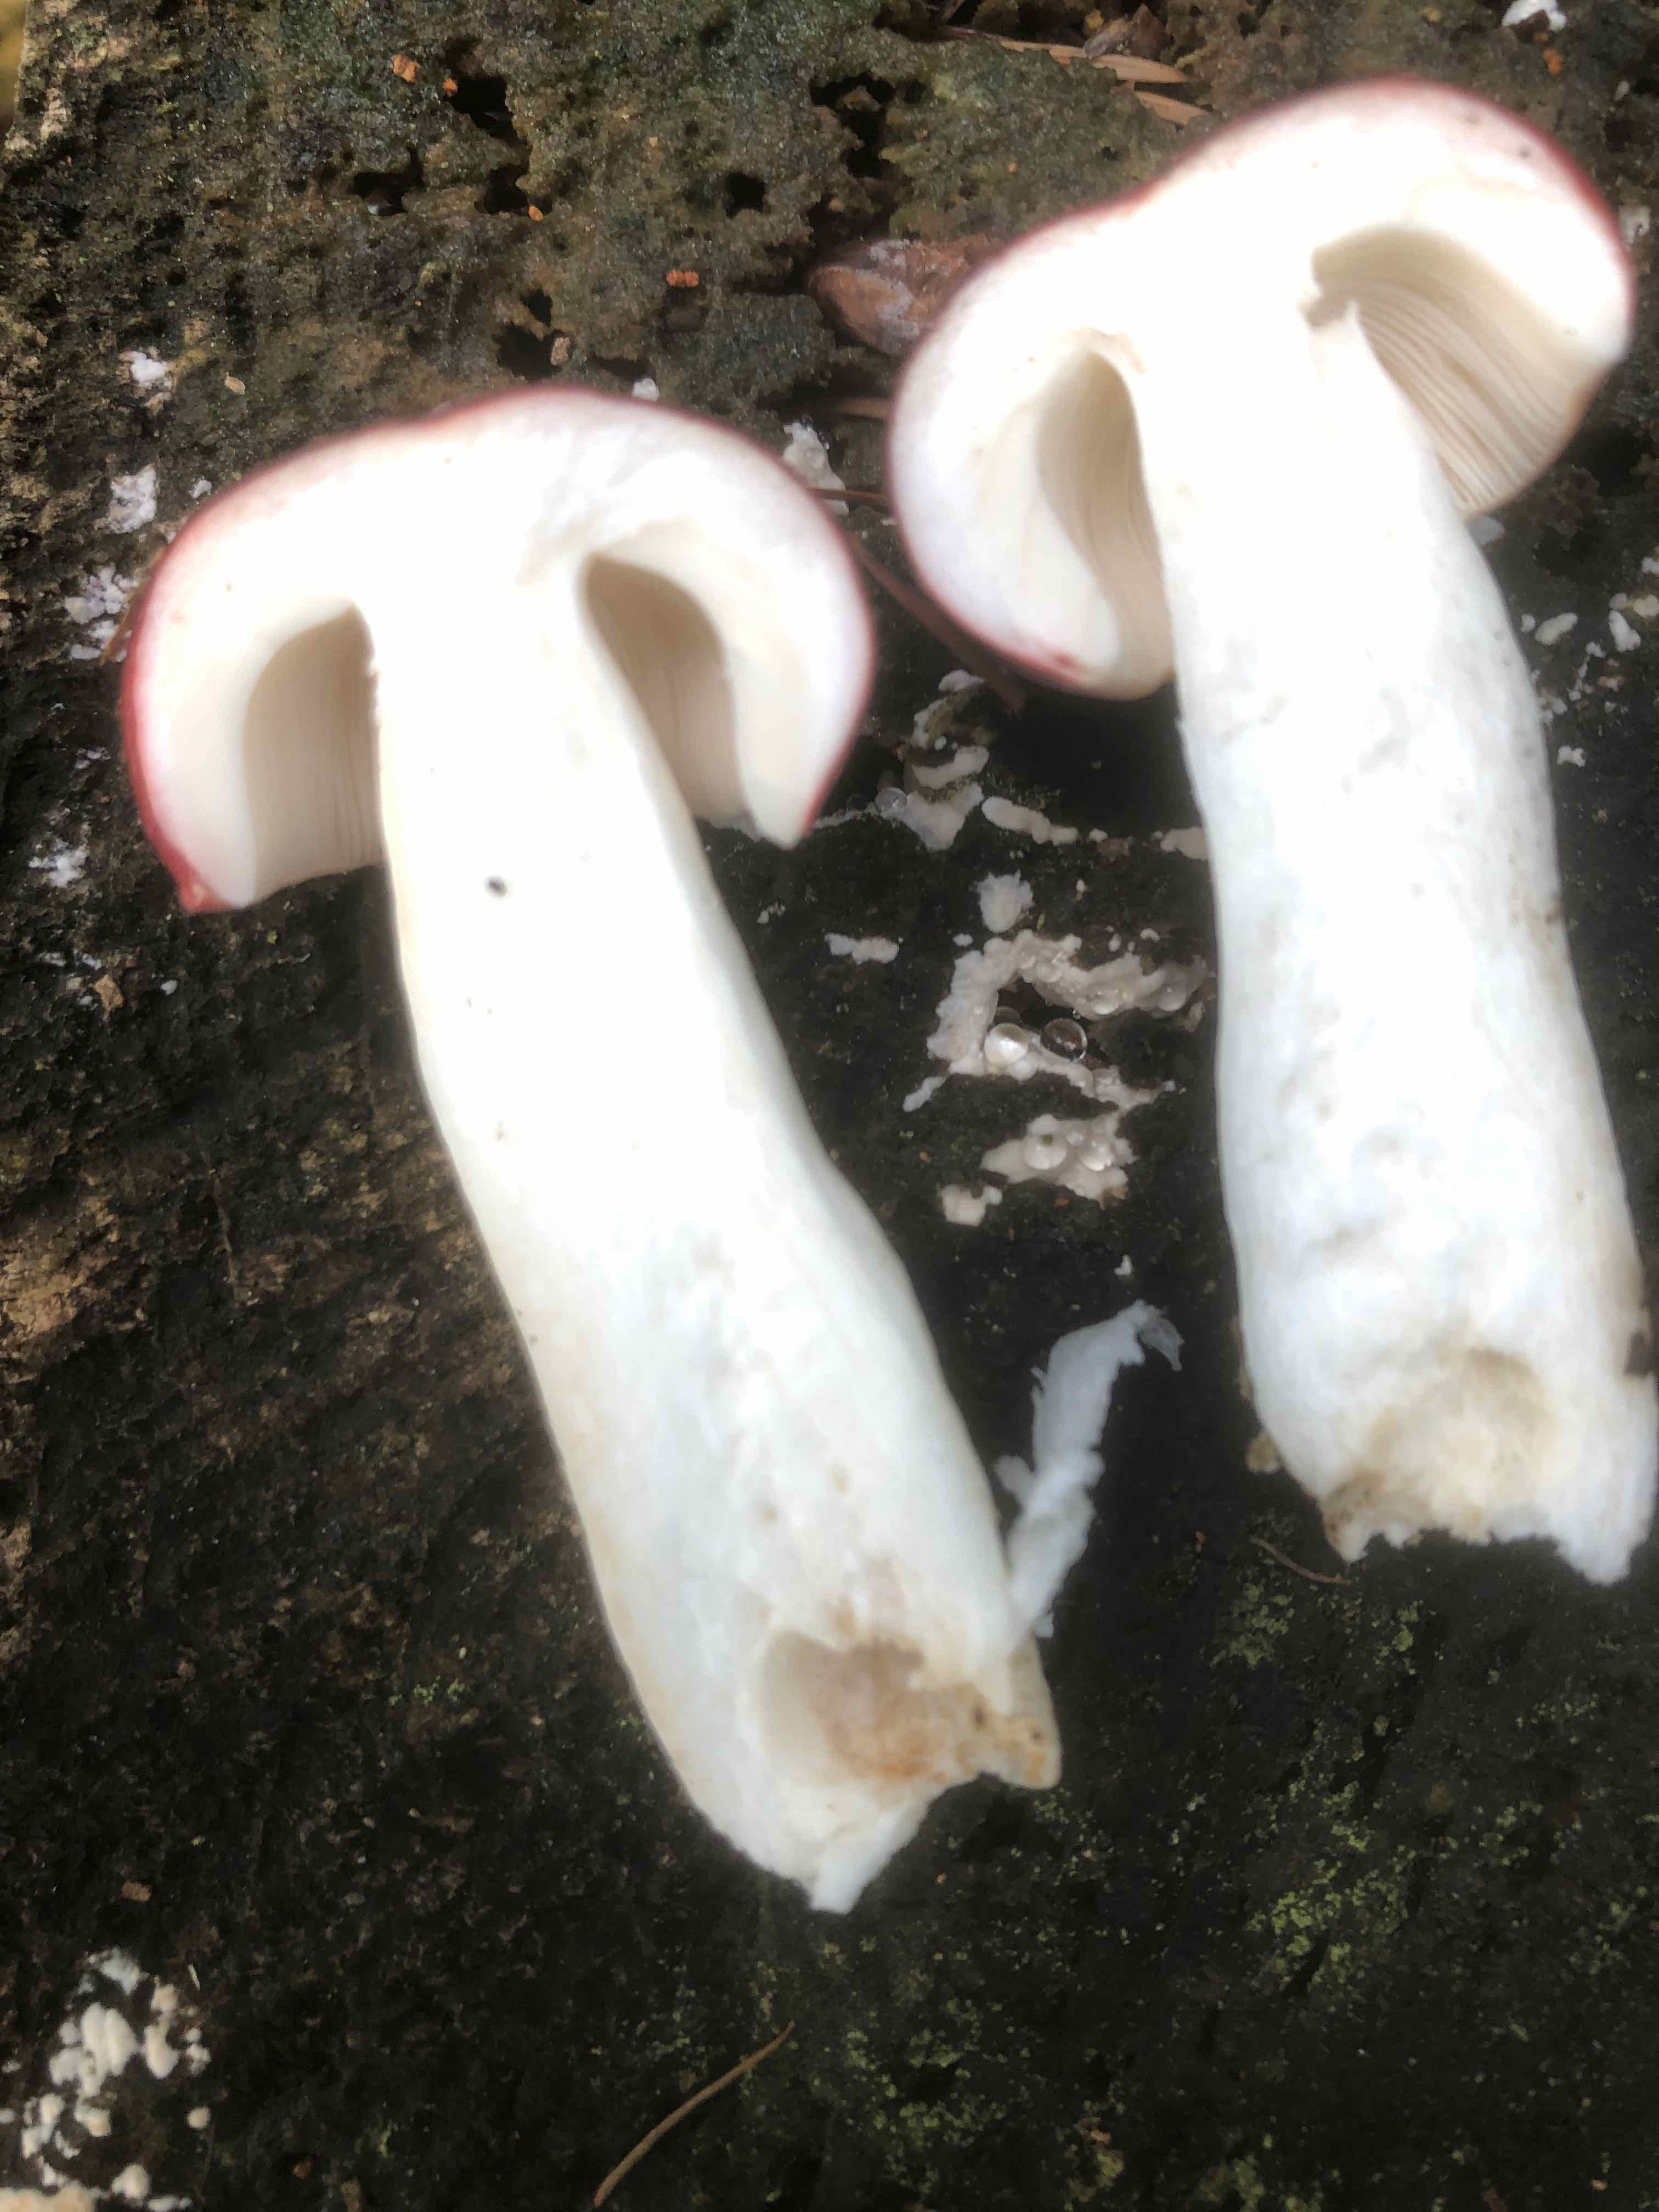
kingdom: Fungi
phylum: Basidiomycota
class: Agaricomycetes
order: Russulales
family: Russulaceae
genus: Russula
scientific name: Russula
